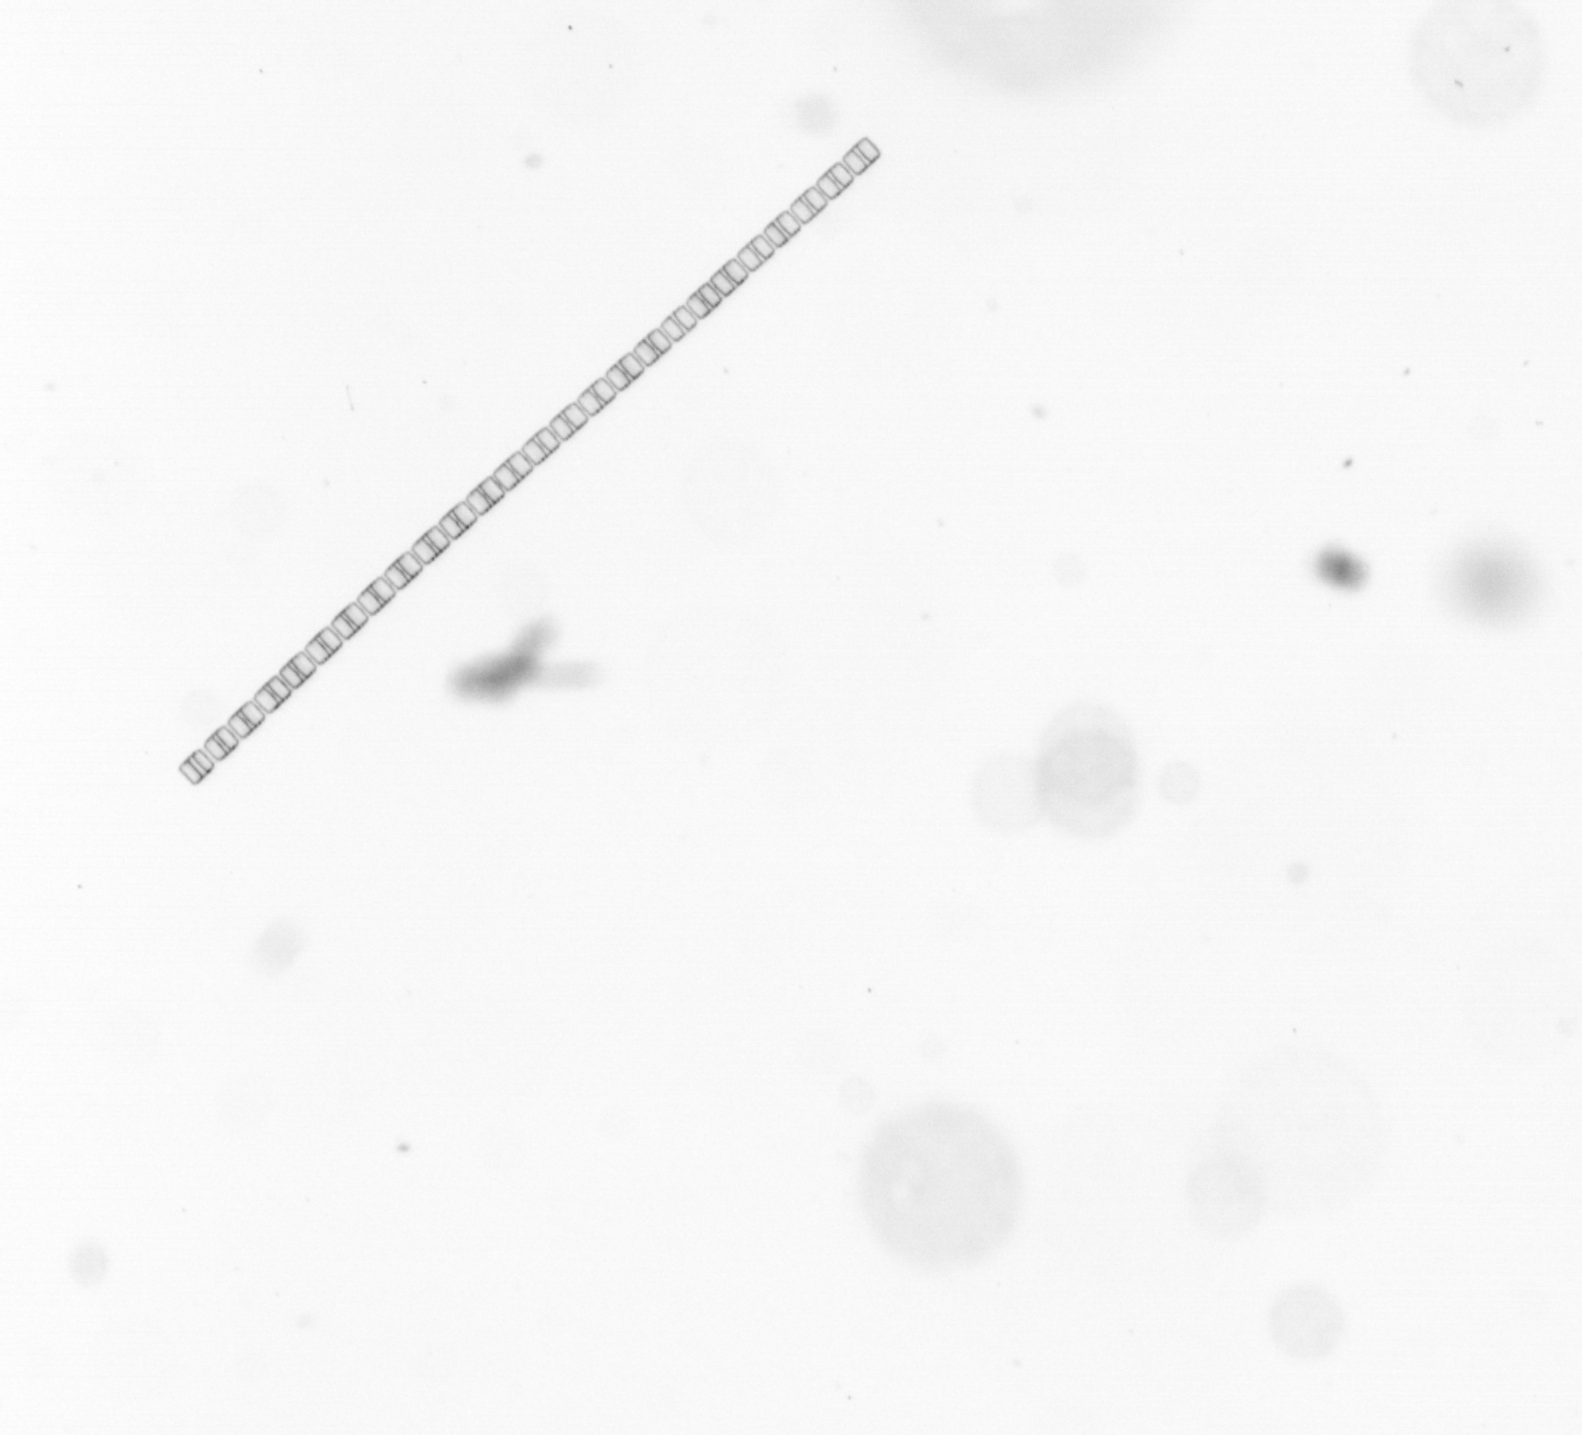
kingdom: Chromista
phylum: Ochrophyta
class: Bacillariophyceae
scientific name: Bacillariophyceae
